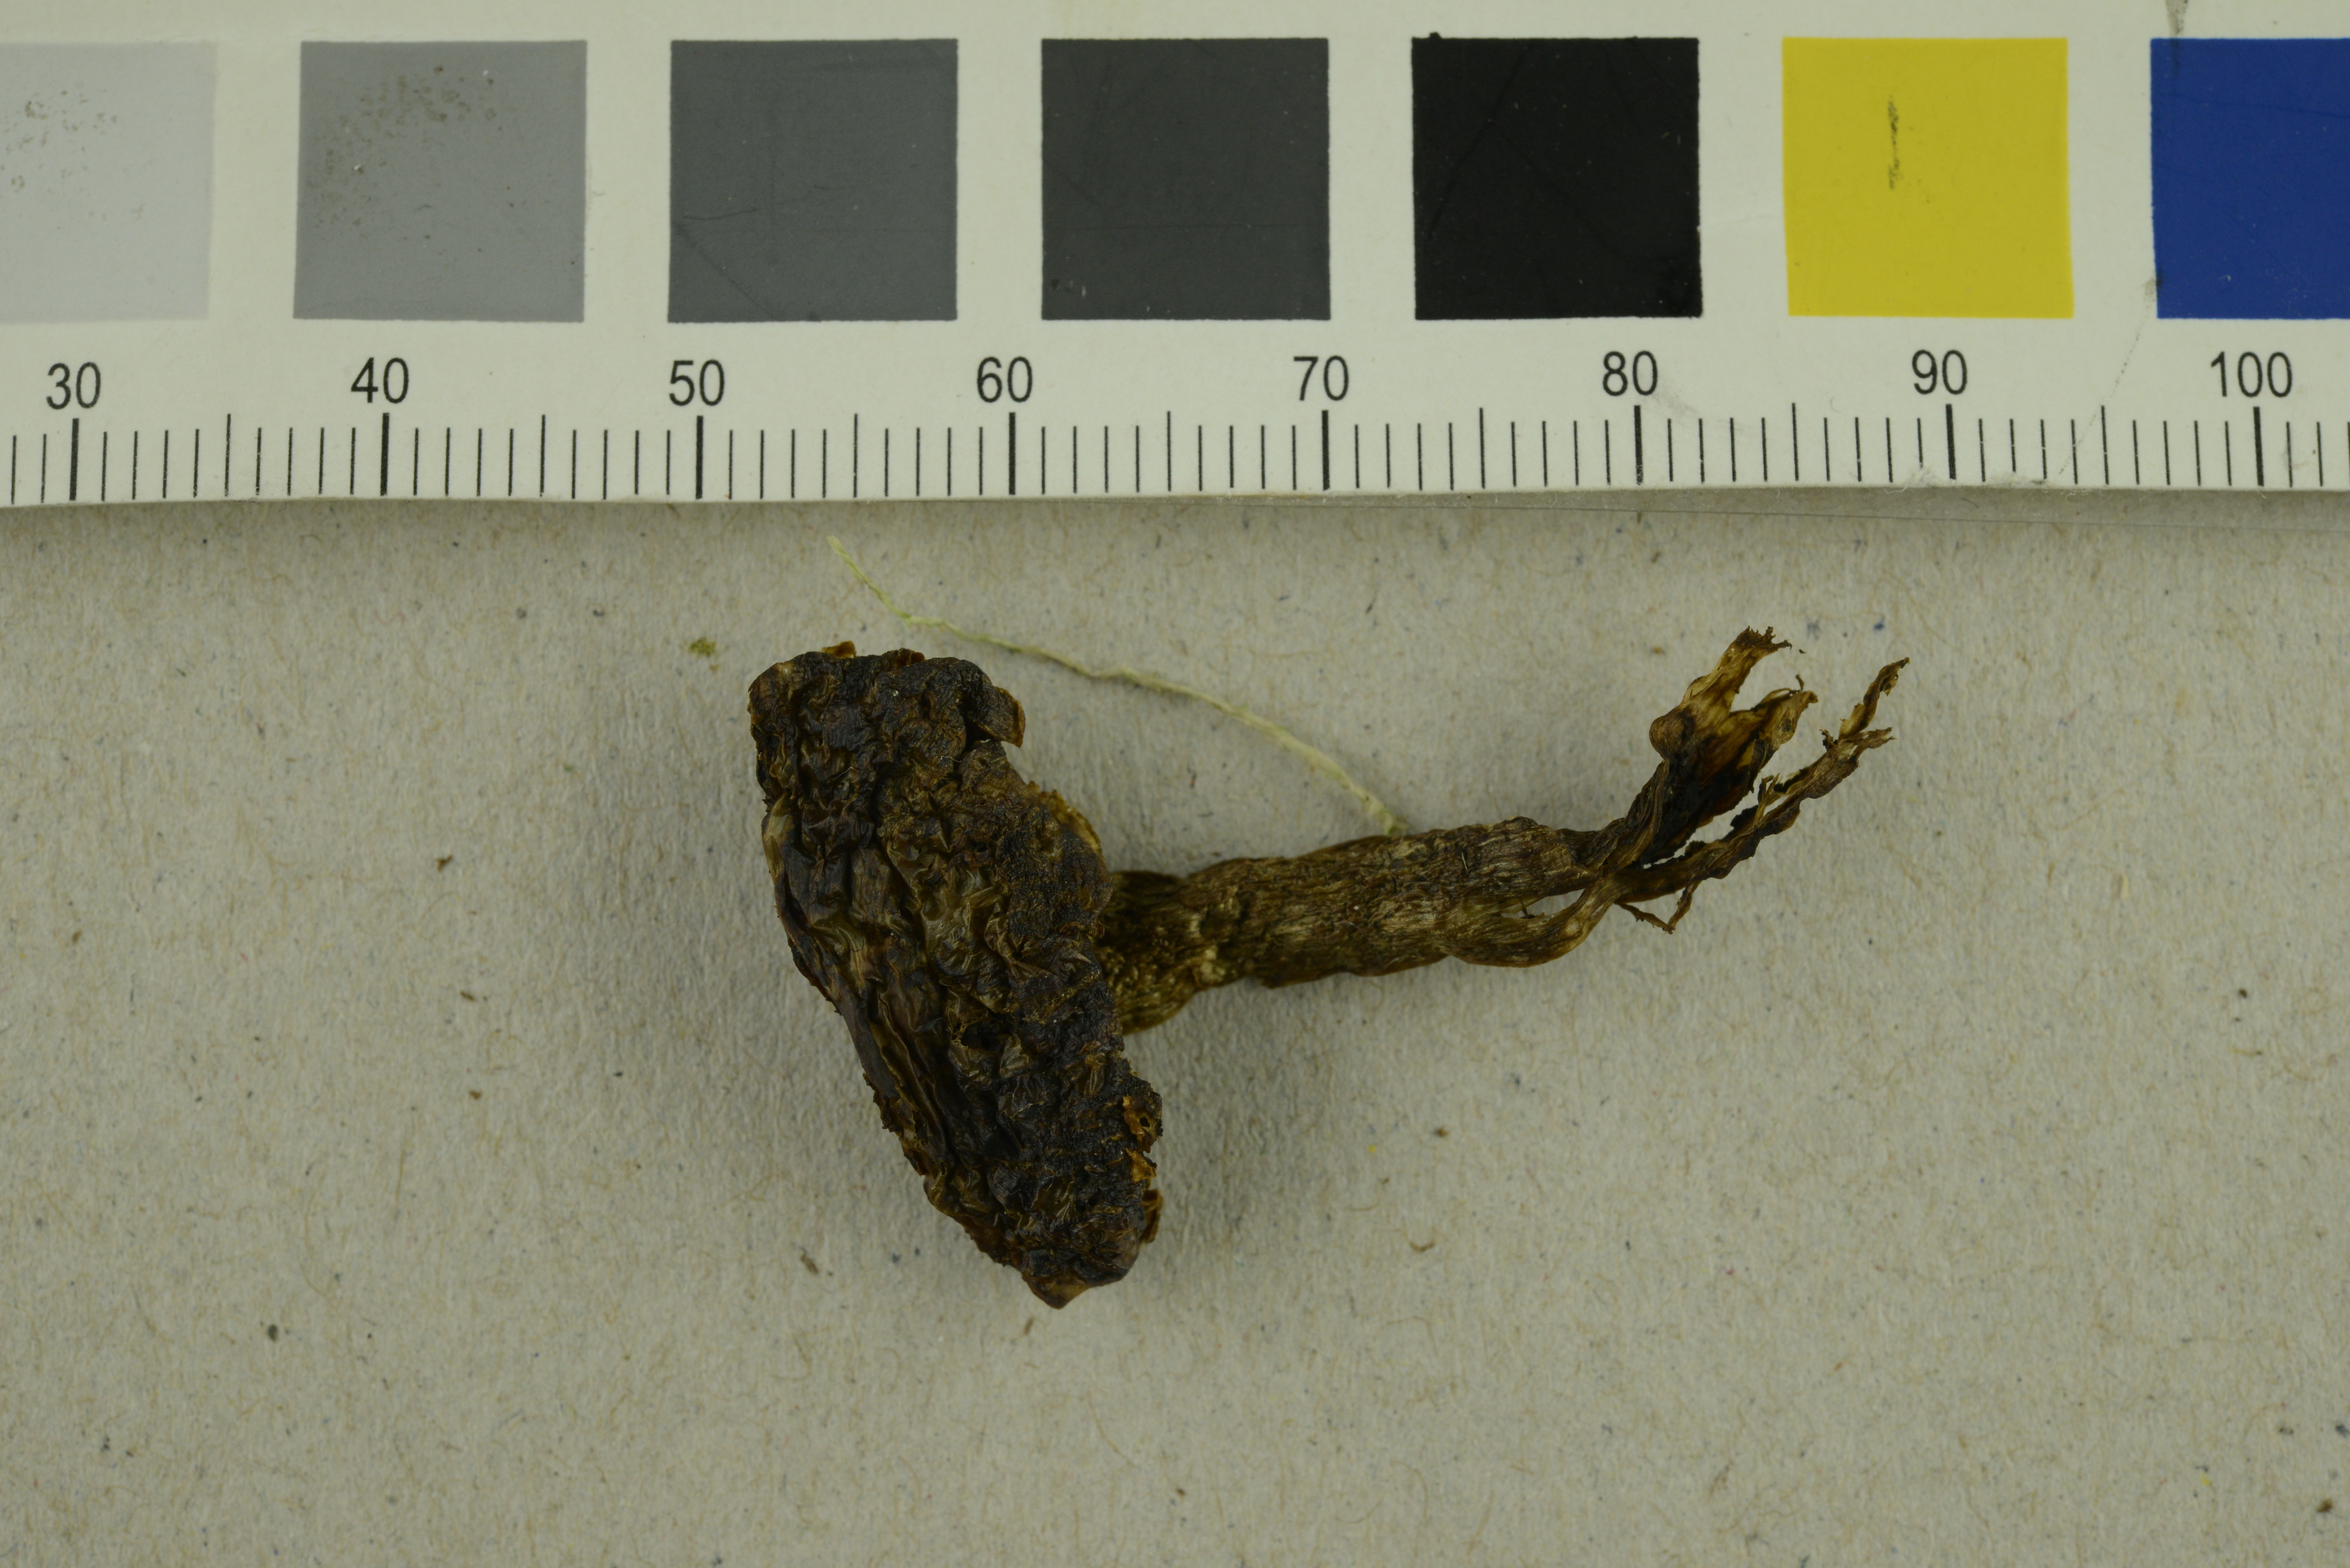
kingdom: Fungi
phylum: Basidiomycota
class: Agaricomycetes
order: Agaricales
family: Cortinariaceae
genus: Cortinarius
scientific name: Cortinarius fuscescens
